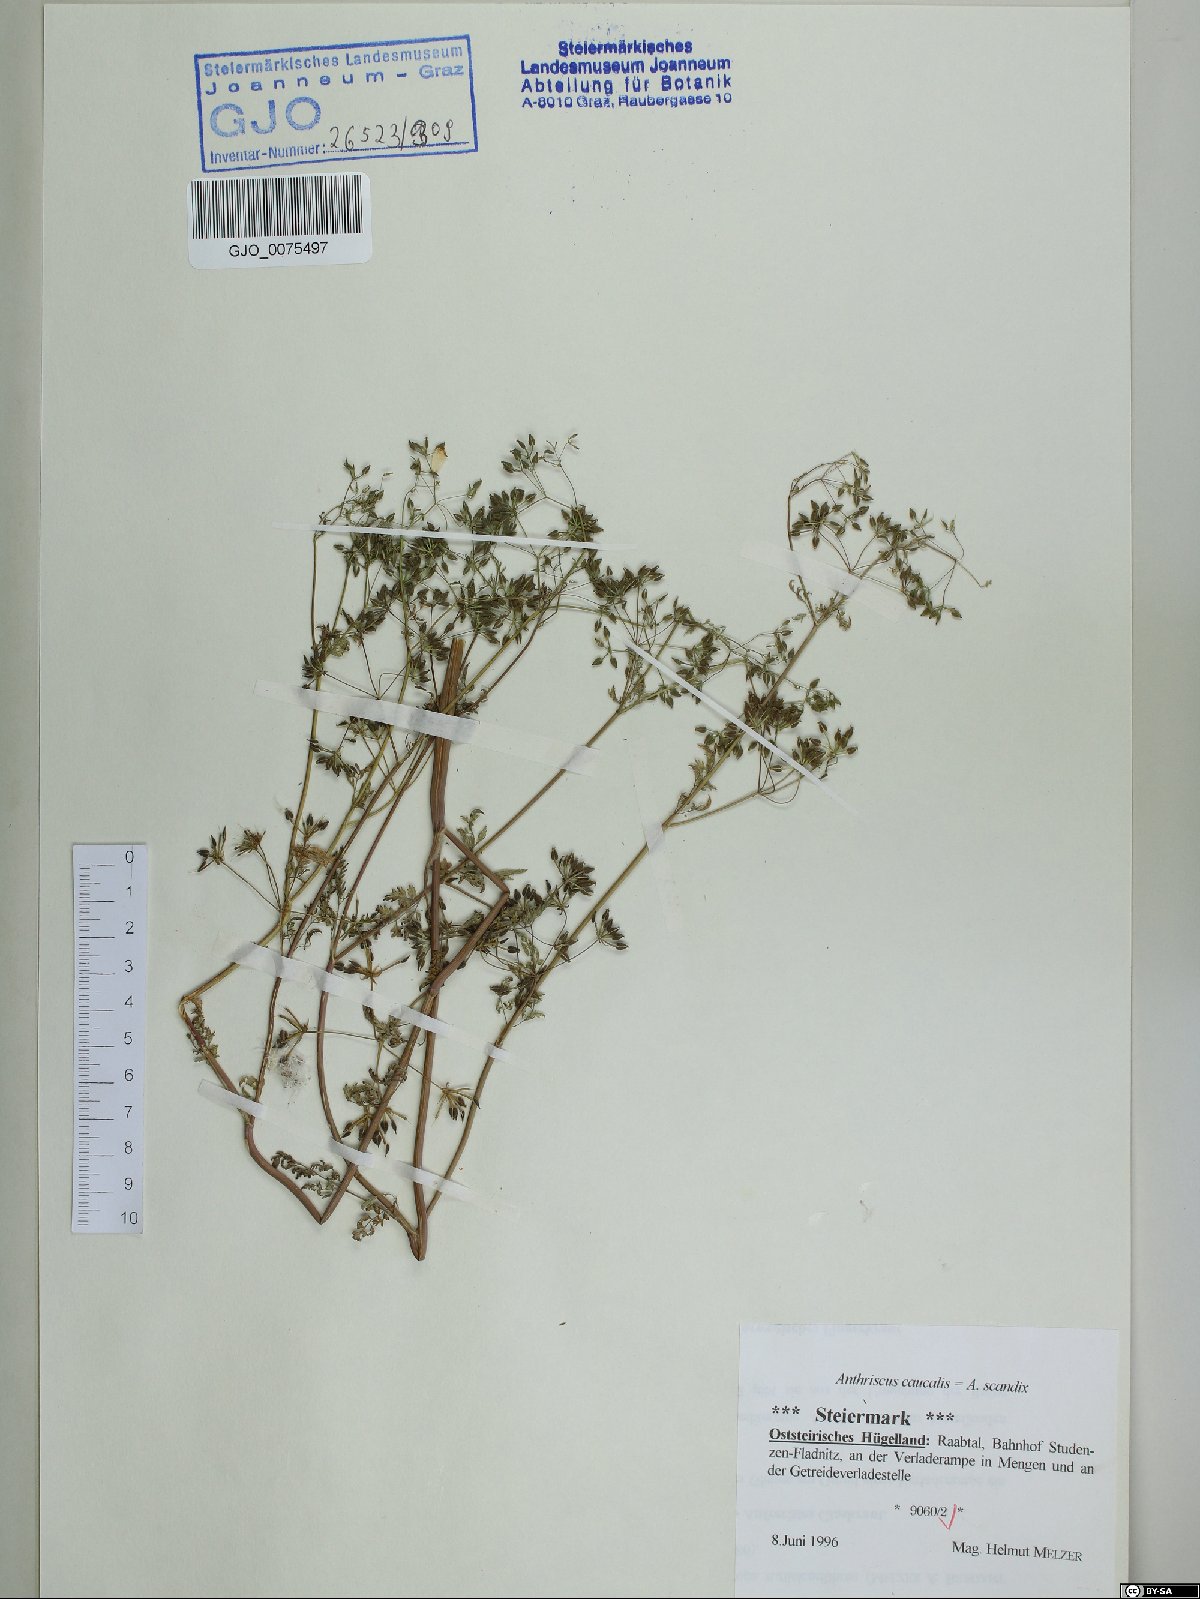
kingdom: Plantae
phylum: Tracheophyta
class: Magnoliopsida
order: Apiales
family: Apiaceae
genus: Anthriscus
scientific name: Anthriscus caucalis
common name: Bur chervil
